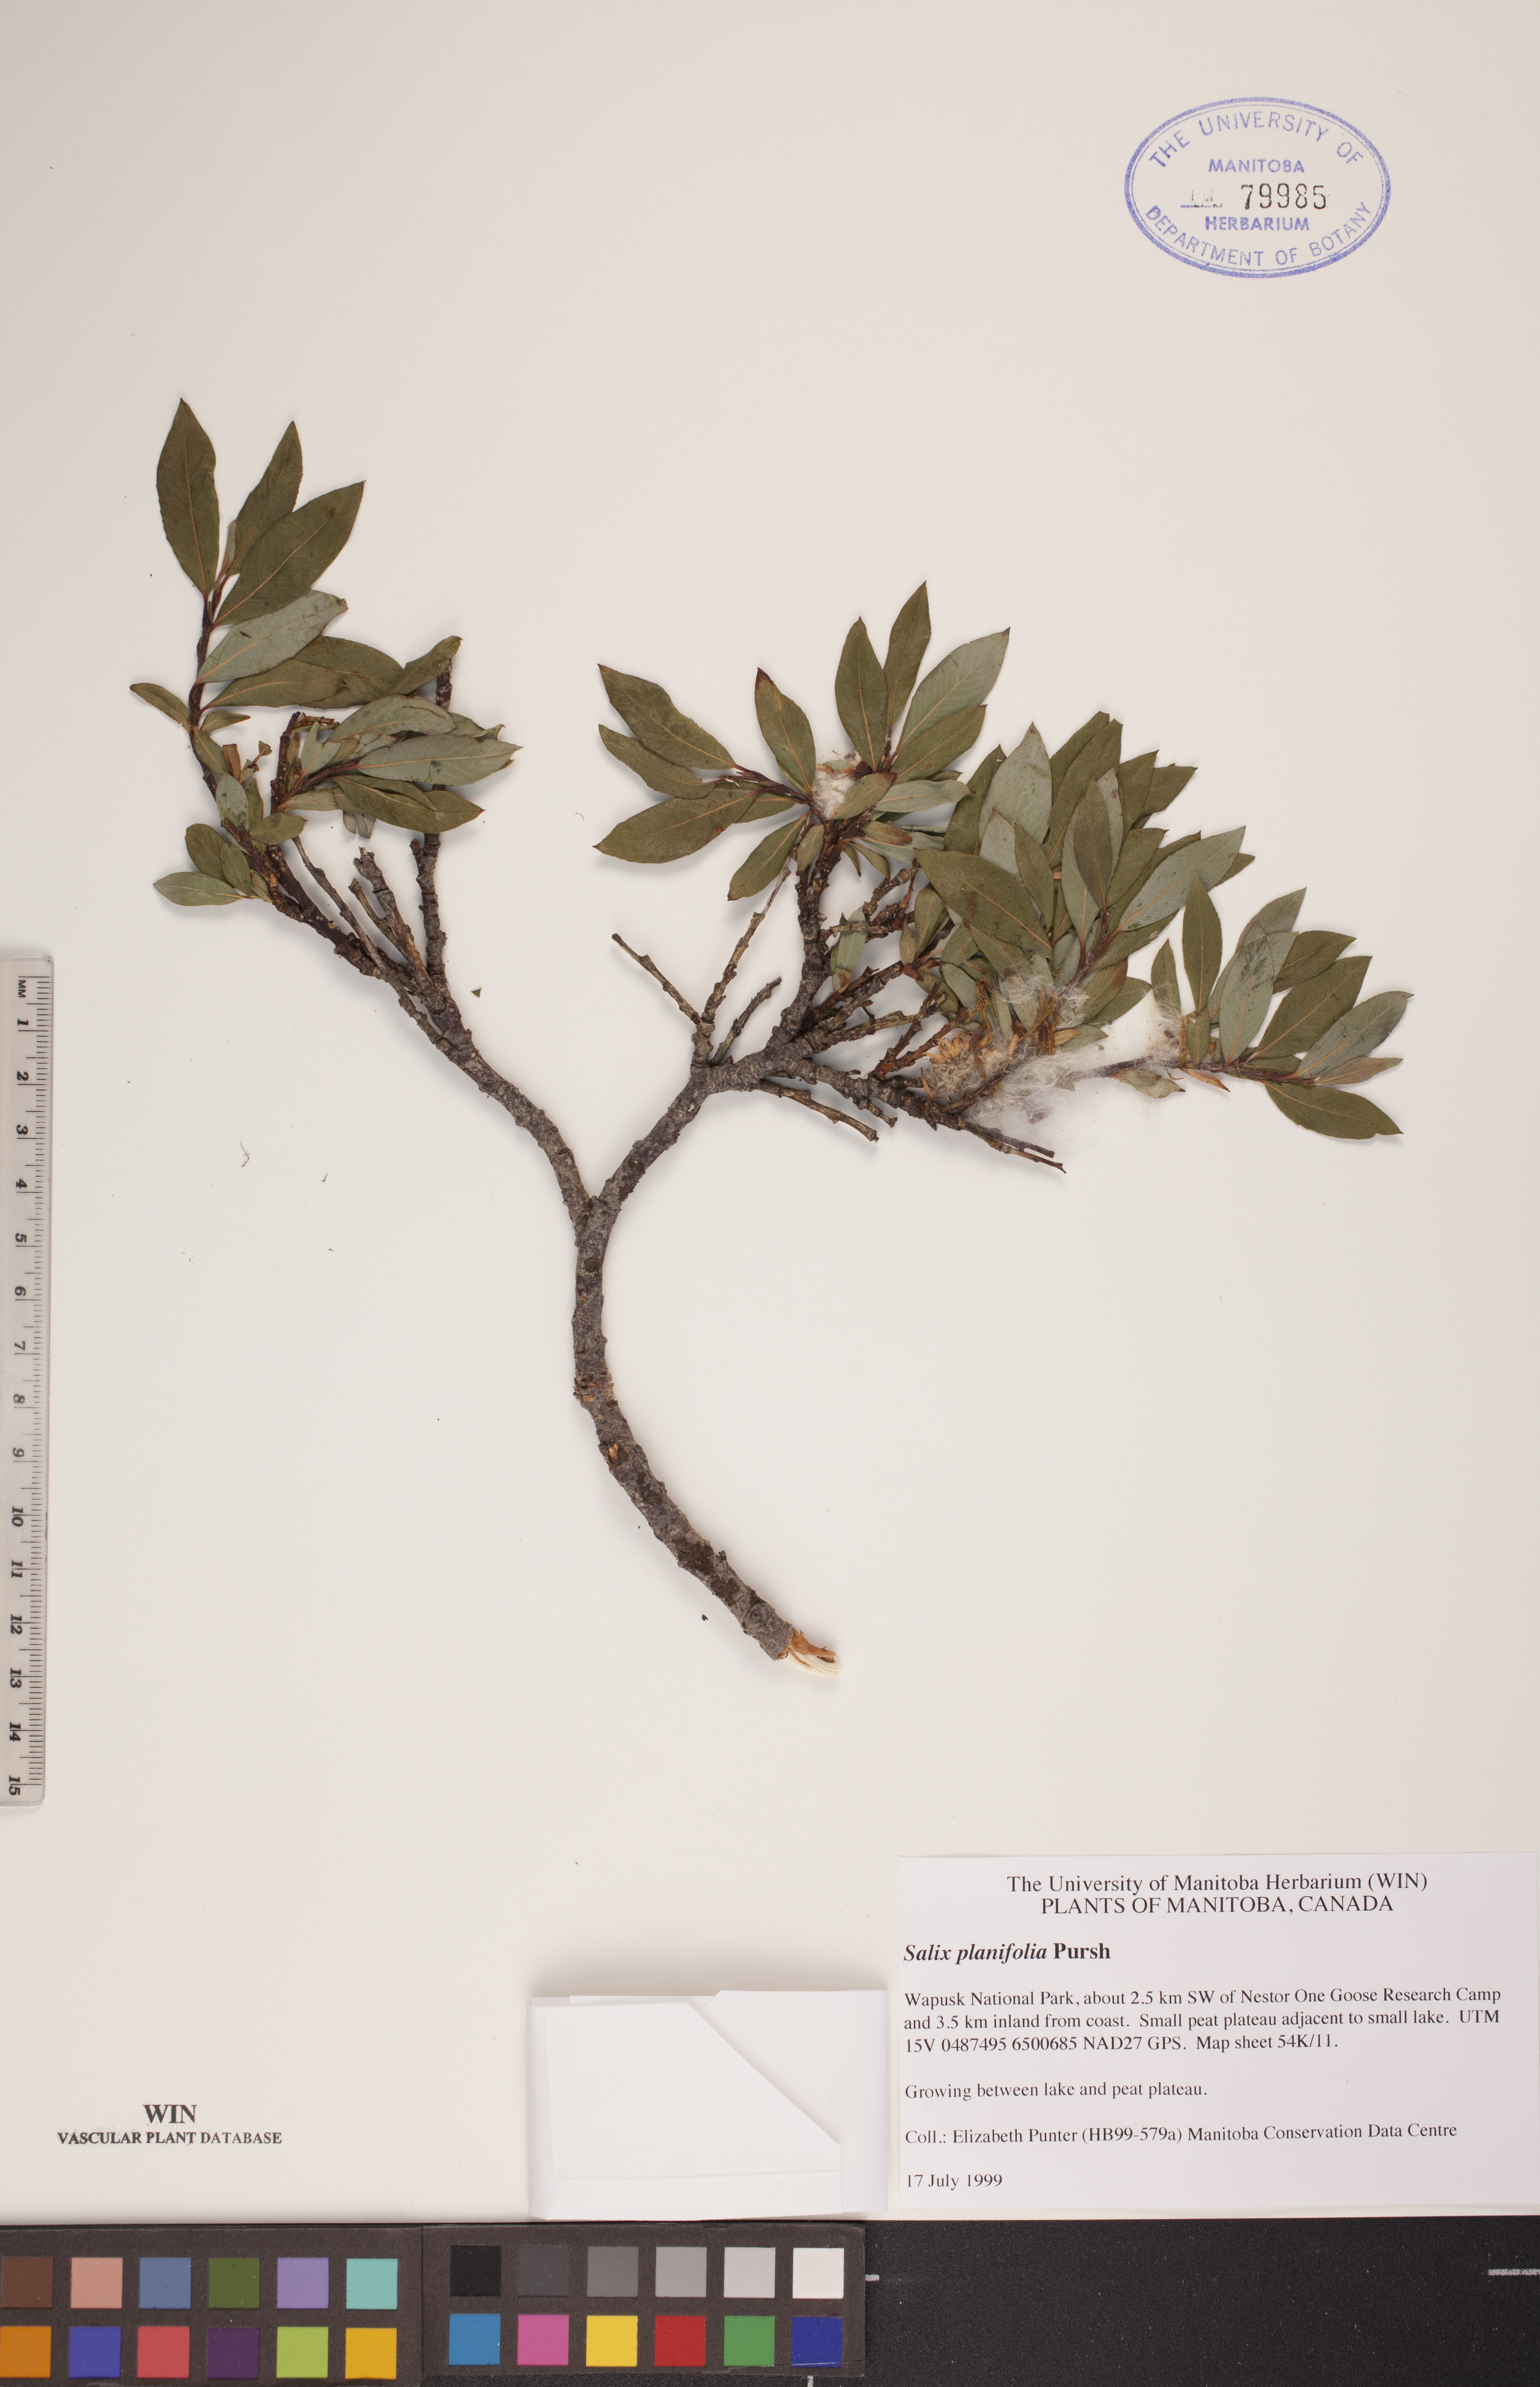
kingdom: Plantae
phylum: Tracheophyta
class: Magnoliopsida
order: Malpighiales
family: Salicaceae
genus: Salix
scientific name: Salix planifolia
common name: Mountain willow
